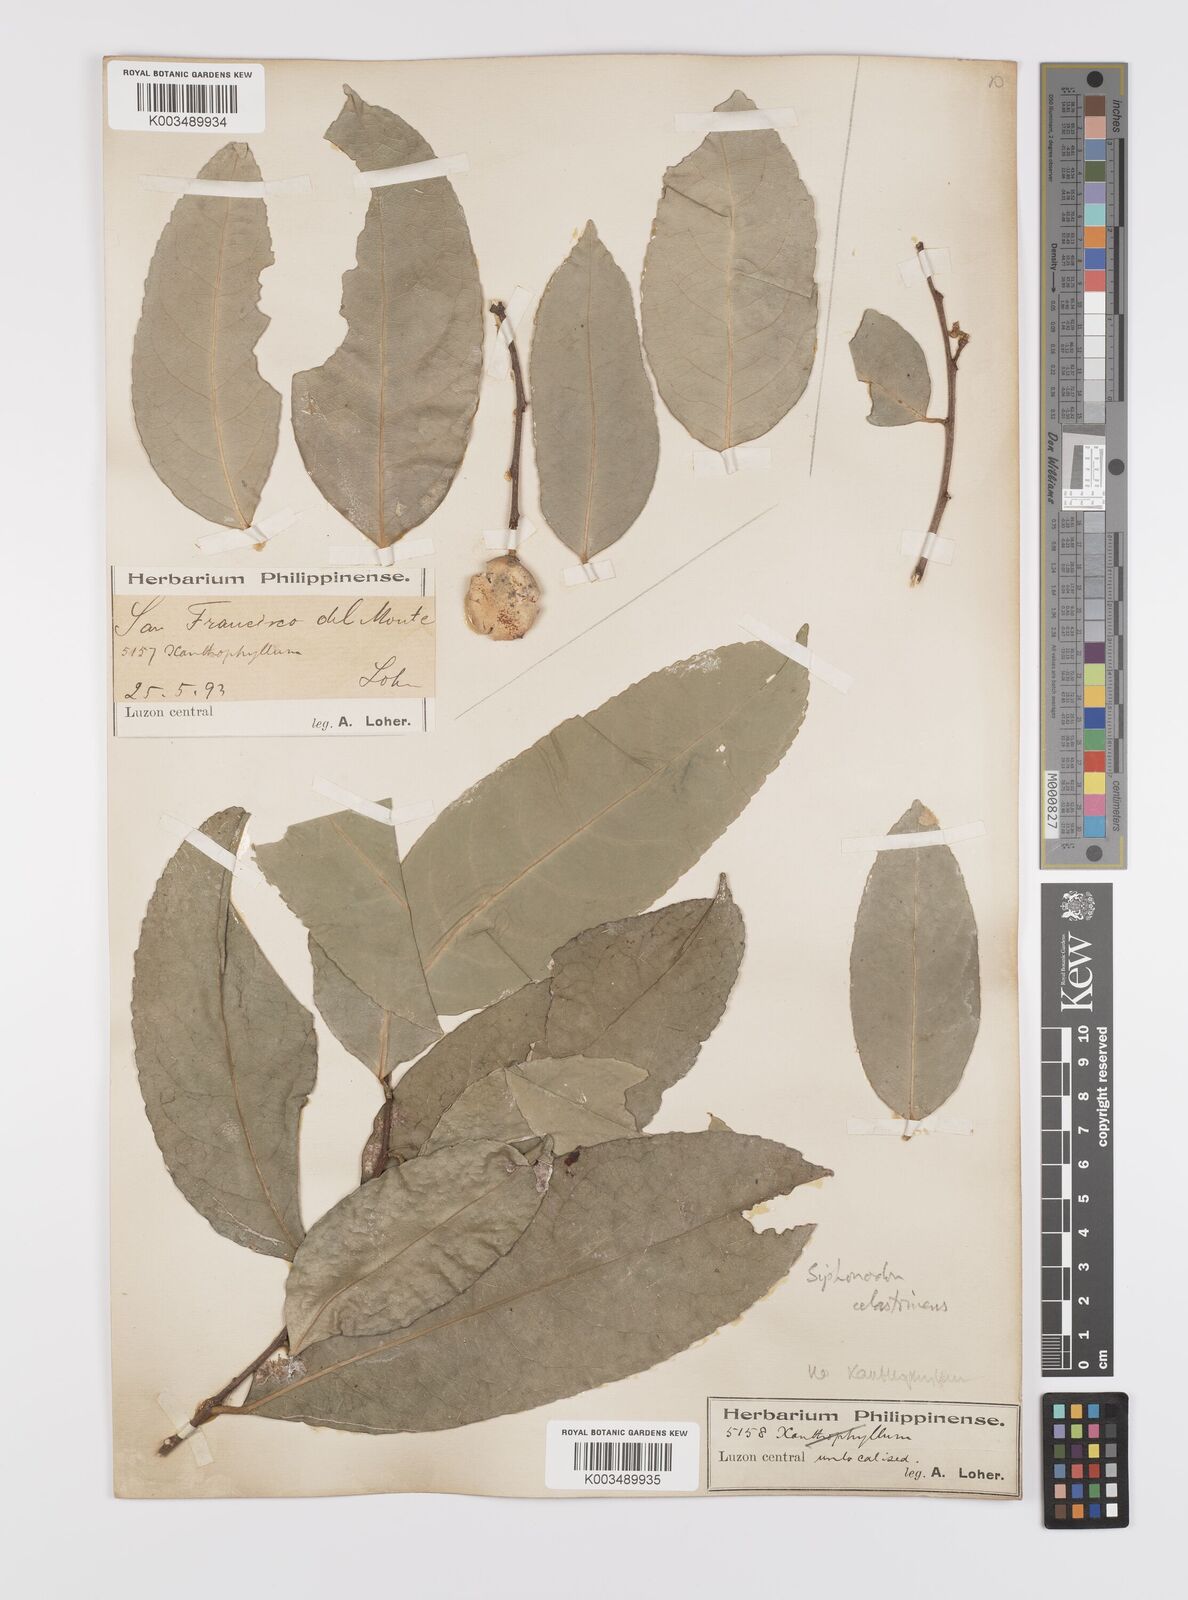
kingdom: Plantae
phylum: Tracheophyta
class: Magnoliopsida
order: Celastrales
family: Celastraceae
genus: Siphonodon
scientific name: Siphonodon celastrineus
